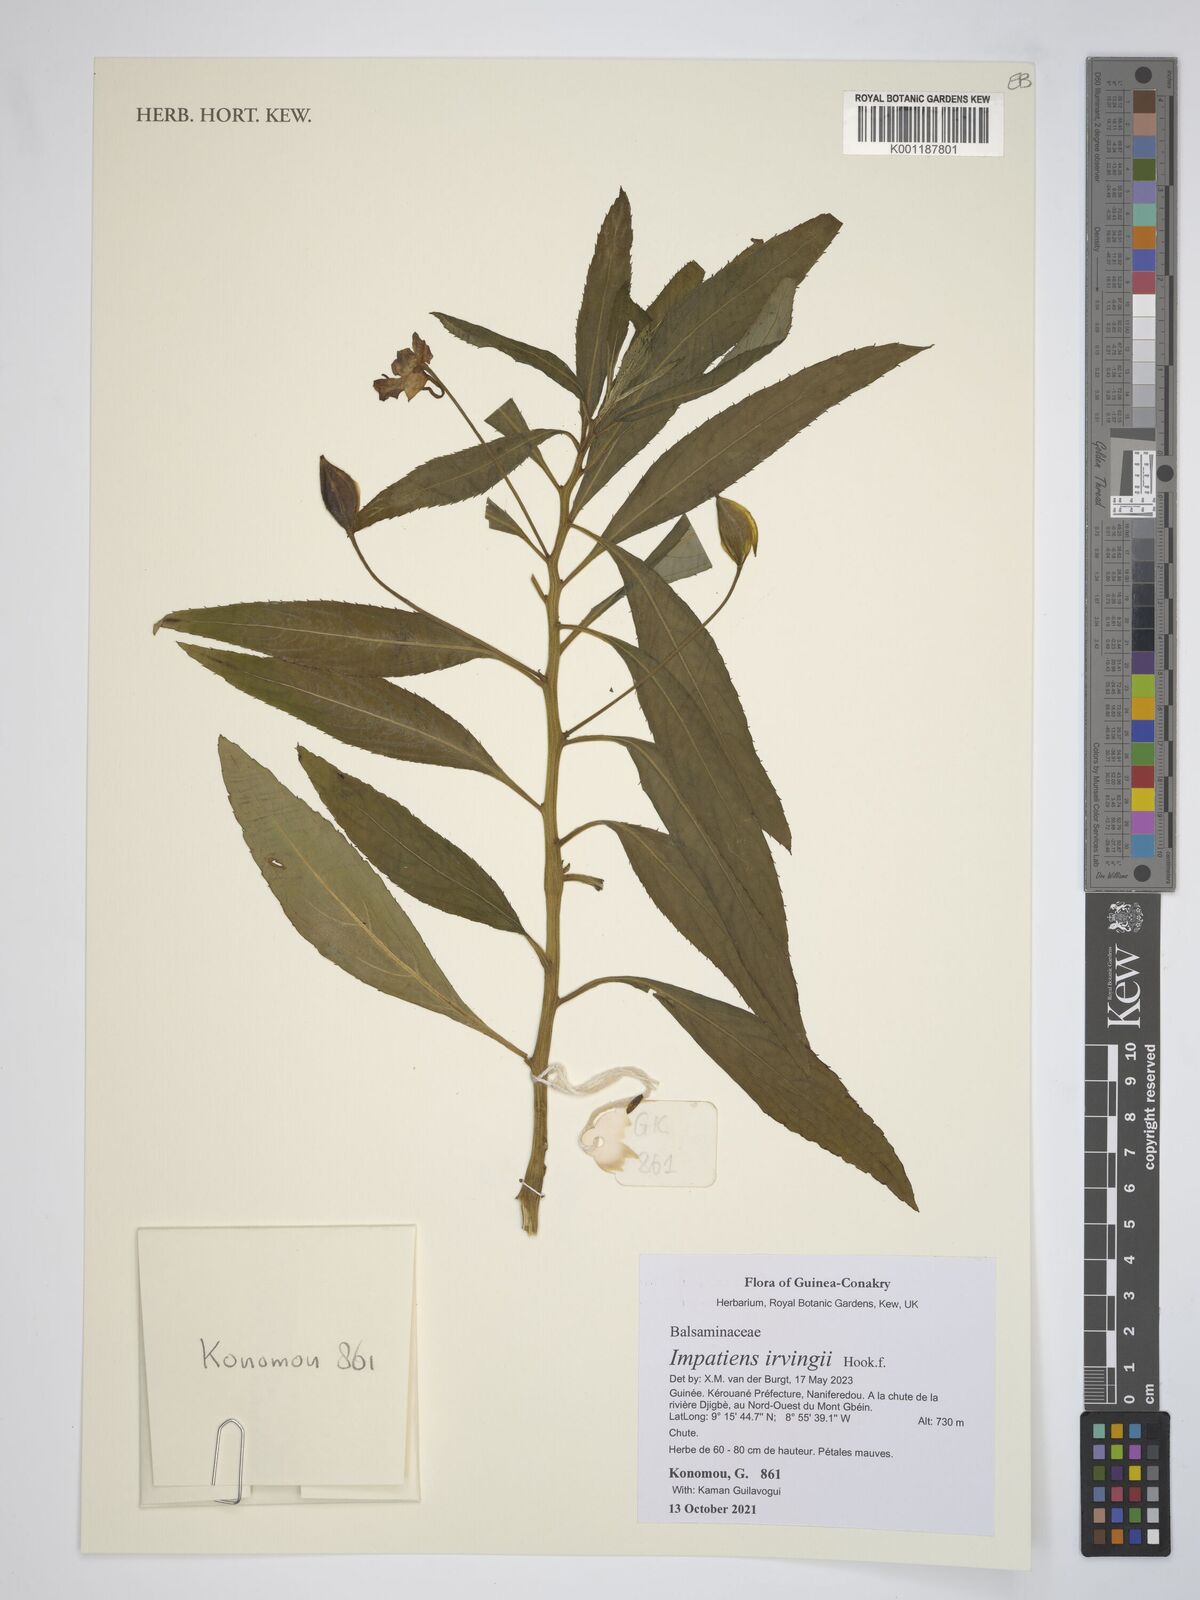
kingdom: Plantae
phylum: Tracheophyta
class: Magnoliopsida
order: Ericales
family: Balsaminaceae
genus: Impatiens
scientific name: Impatiens irvingii
